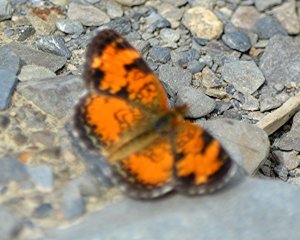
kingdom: Animalia
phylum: Arthropoda
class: Insecta
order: Lepidoptera
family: Nymphalidae
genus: Phyciodes
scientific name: Phyciodes tharos
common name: Northern Crescent
